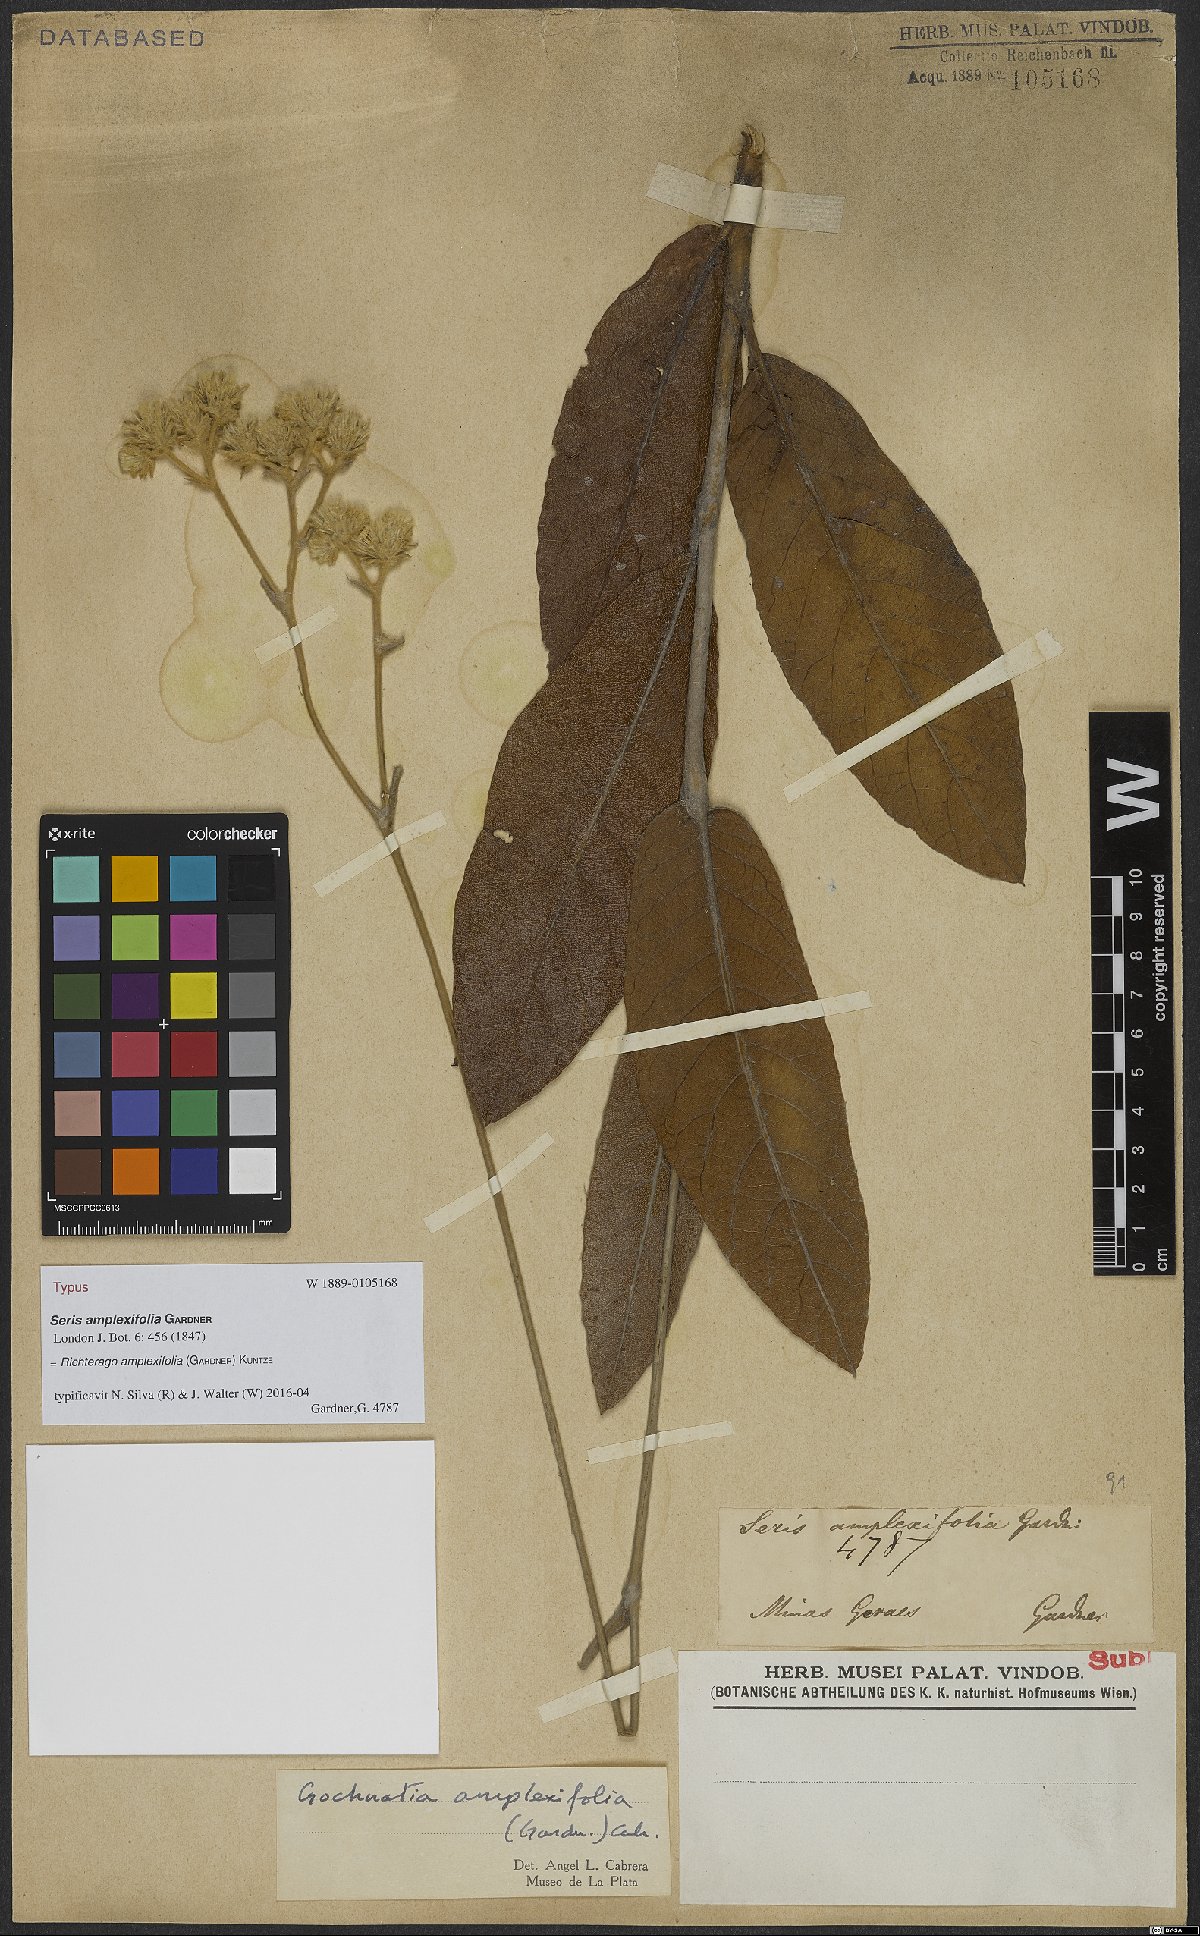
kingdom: Plantae
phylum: Tracheophyta
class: Magnoliopsida
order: Asterales
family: Asteraceae
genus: Richterago
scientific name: Richterago amplexifolia
